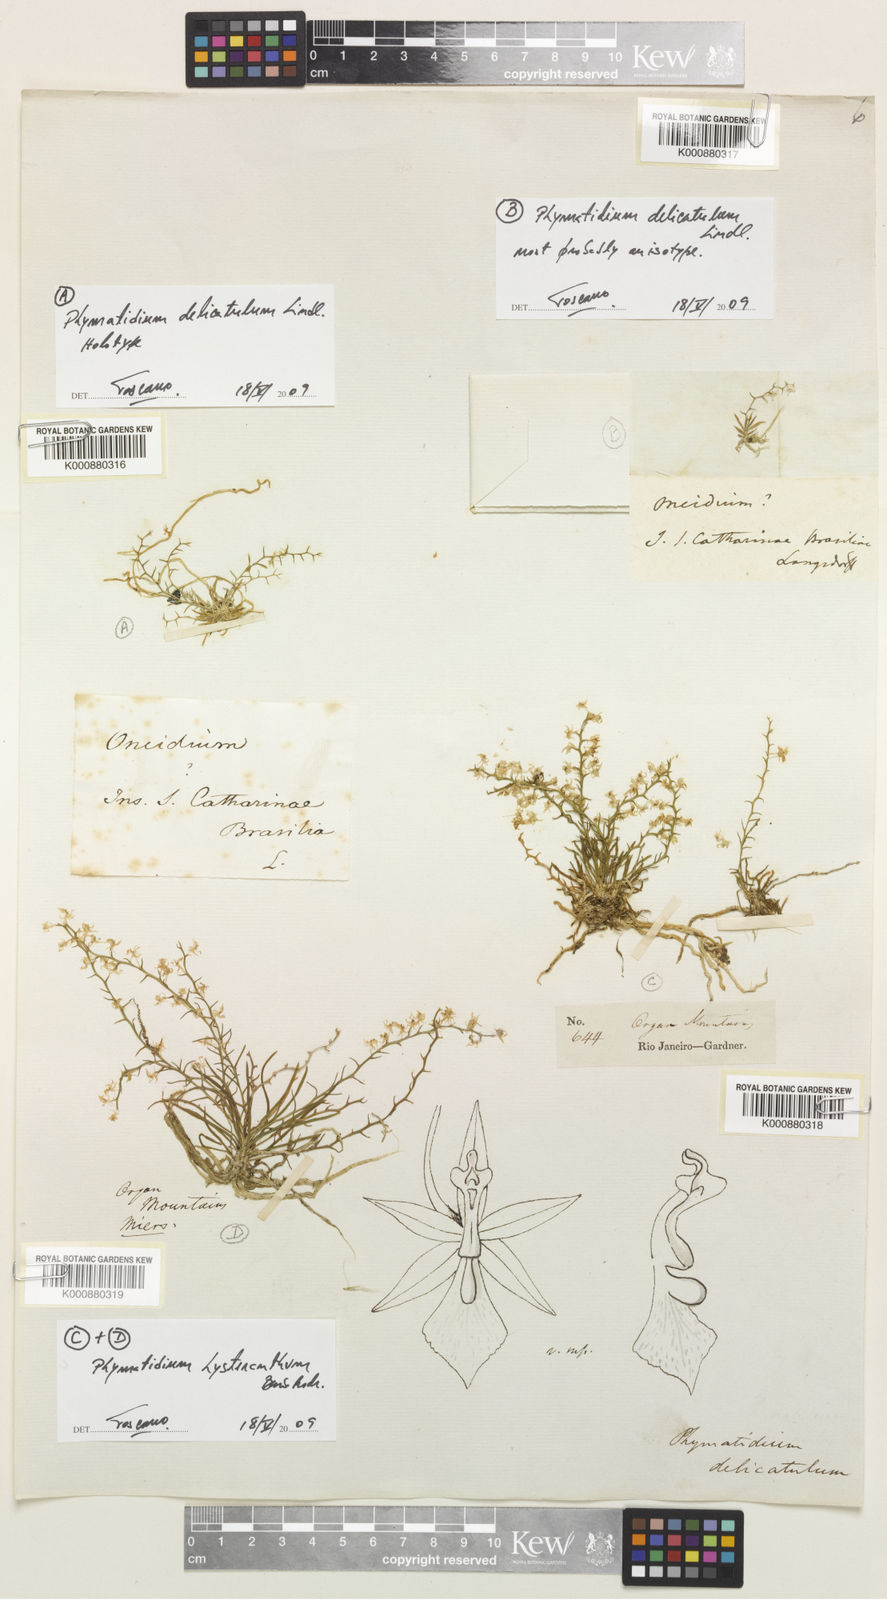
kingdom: Plantae
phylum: Tracheophyta
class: Liliopsida
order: Asparagales
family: Orchidaceae
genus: Phymatidium
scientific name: Phymatidium delicatulum
